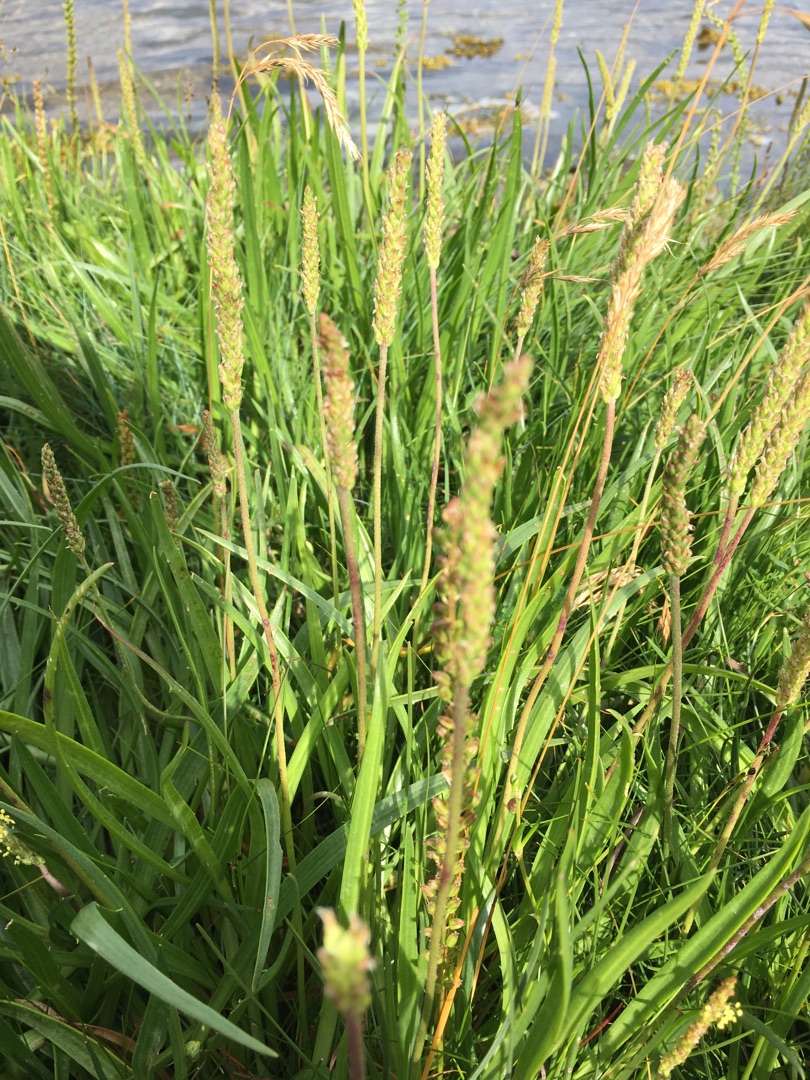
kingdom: Plantae
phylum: Tracheophyta
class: Liliopsida
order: Alismatales
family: Juncaginaceae
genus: Triglochin
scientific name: Triglochin maritima
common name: Strand-trehage
